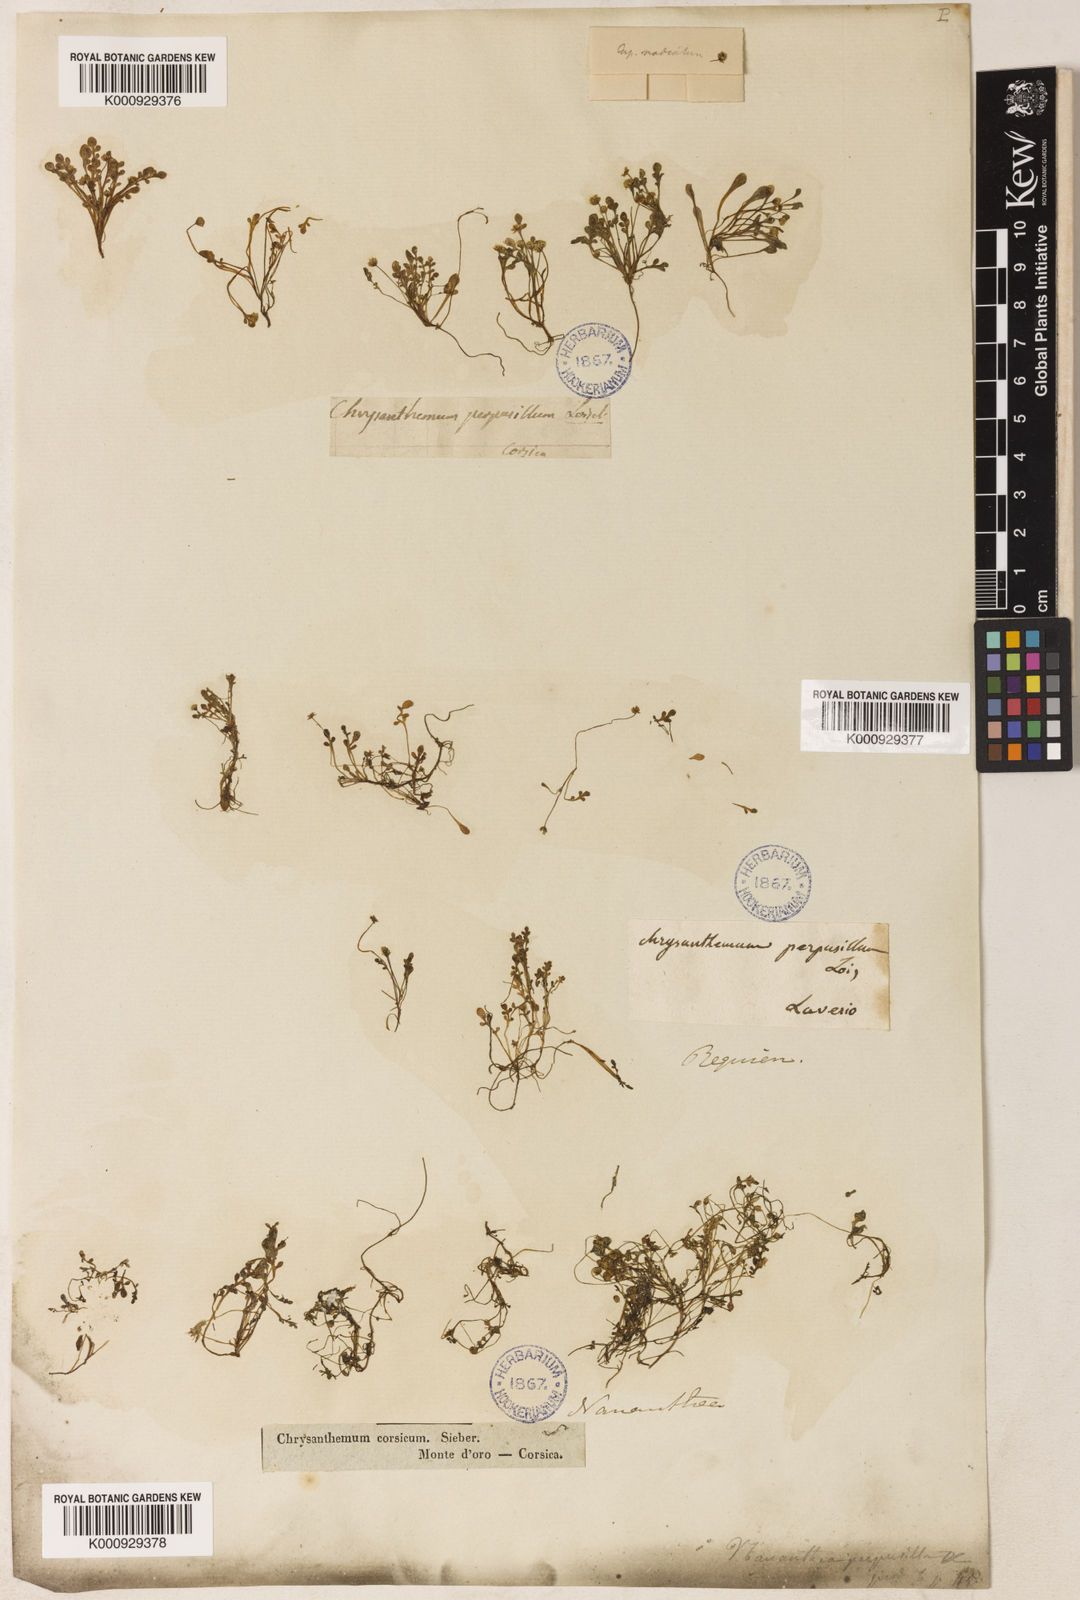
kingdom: Plantae
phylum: Tracheophyta
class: Magnoliopsida
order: Asterales
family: Asteraceae
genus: Nananthea
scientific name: Nananthea perpusilla
